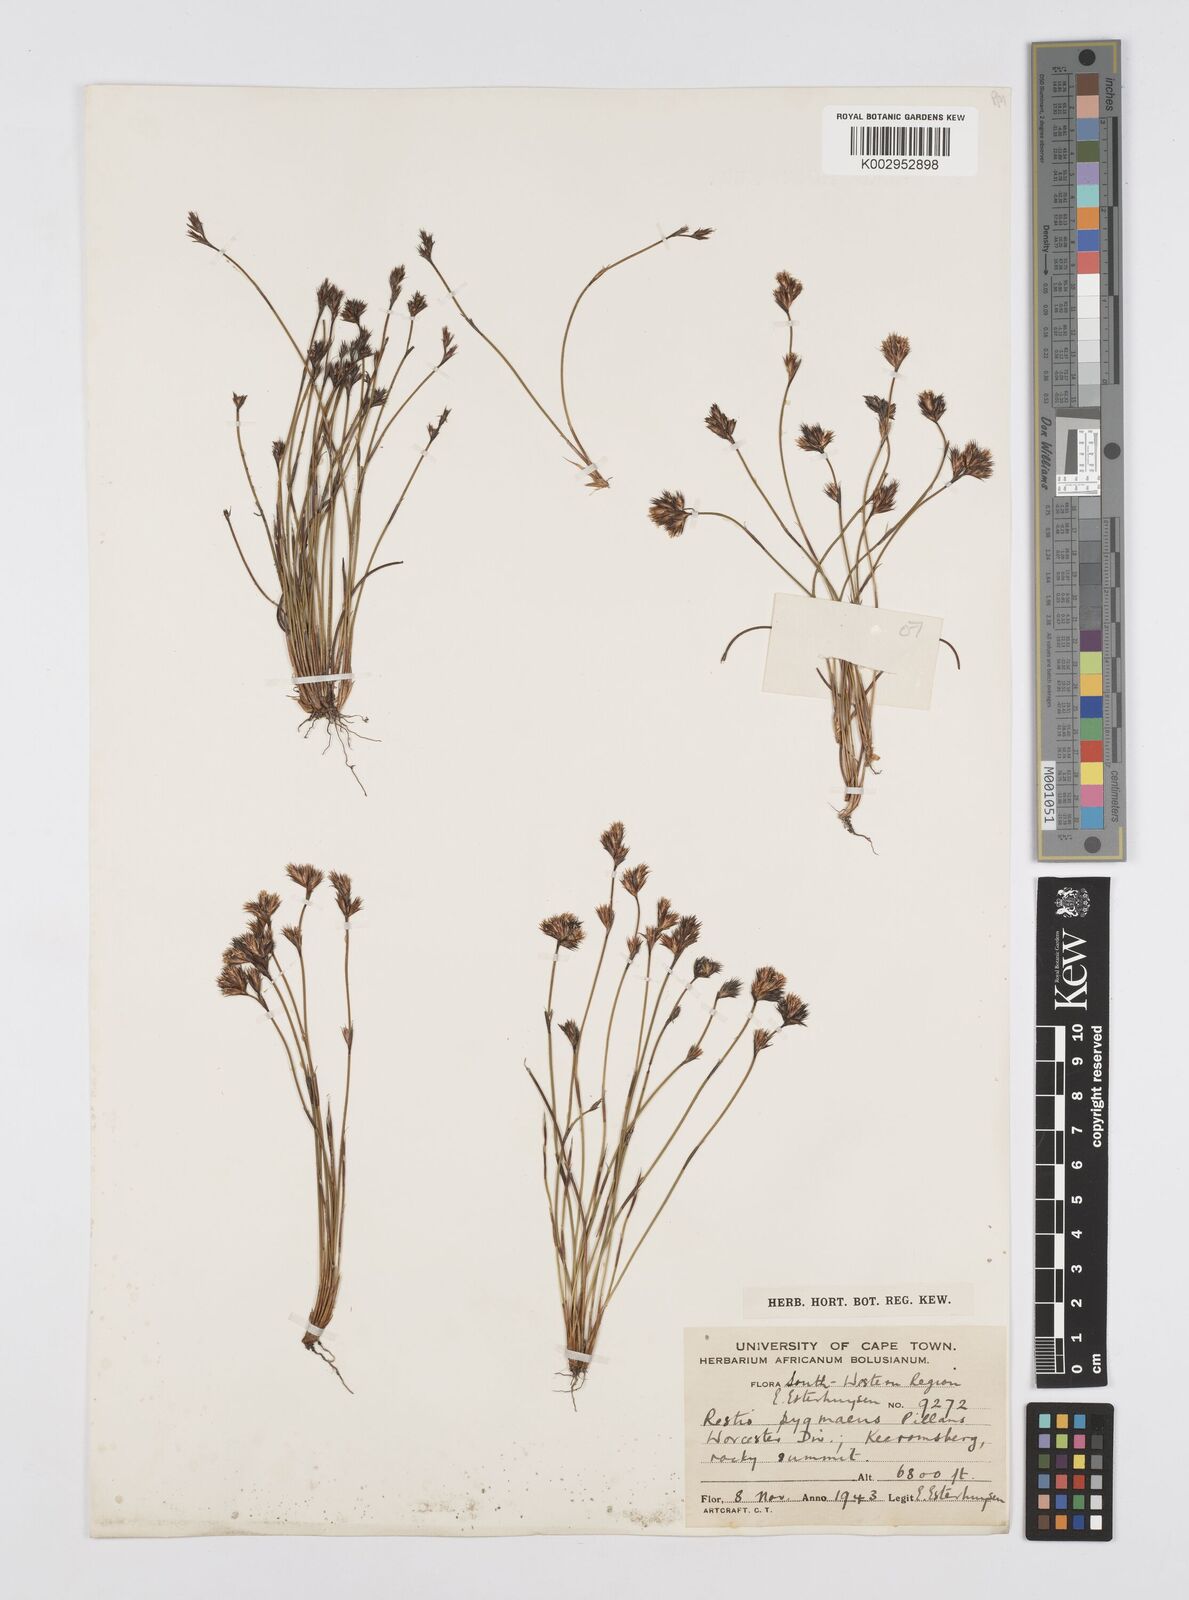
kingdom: Plantae
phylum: Tracheophyta
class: Liliopsida
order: Poales
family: Restionaceae
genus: Restio
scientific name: Restio pygmaeus
